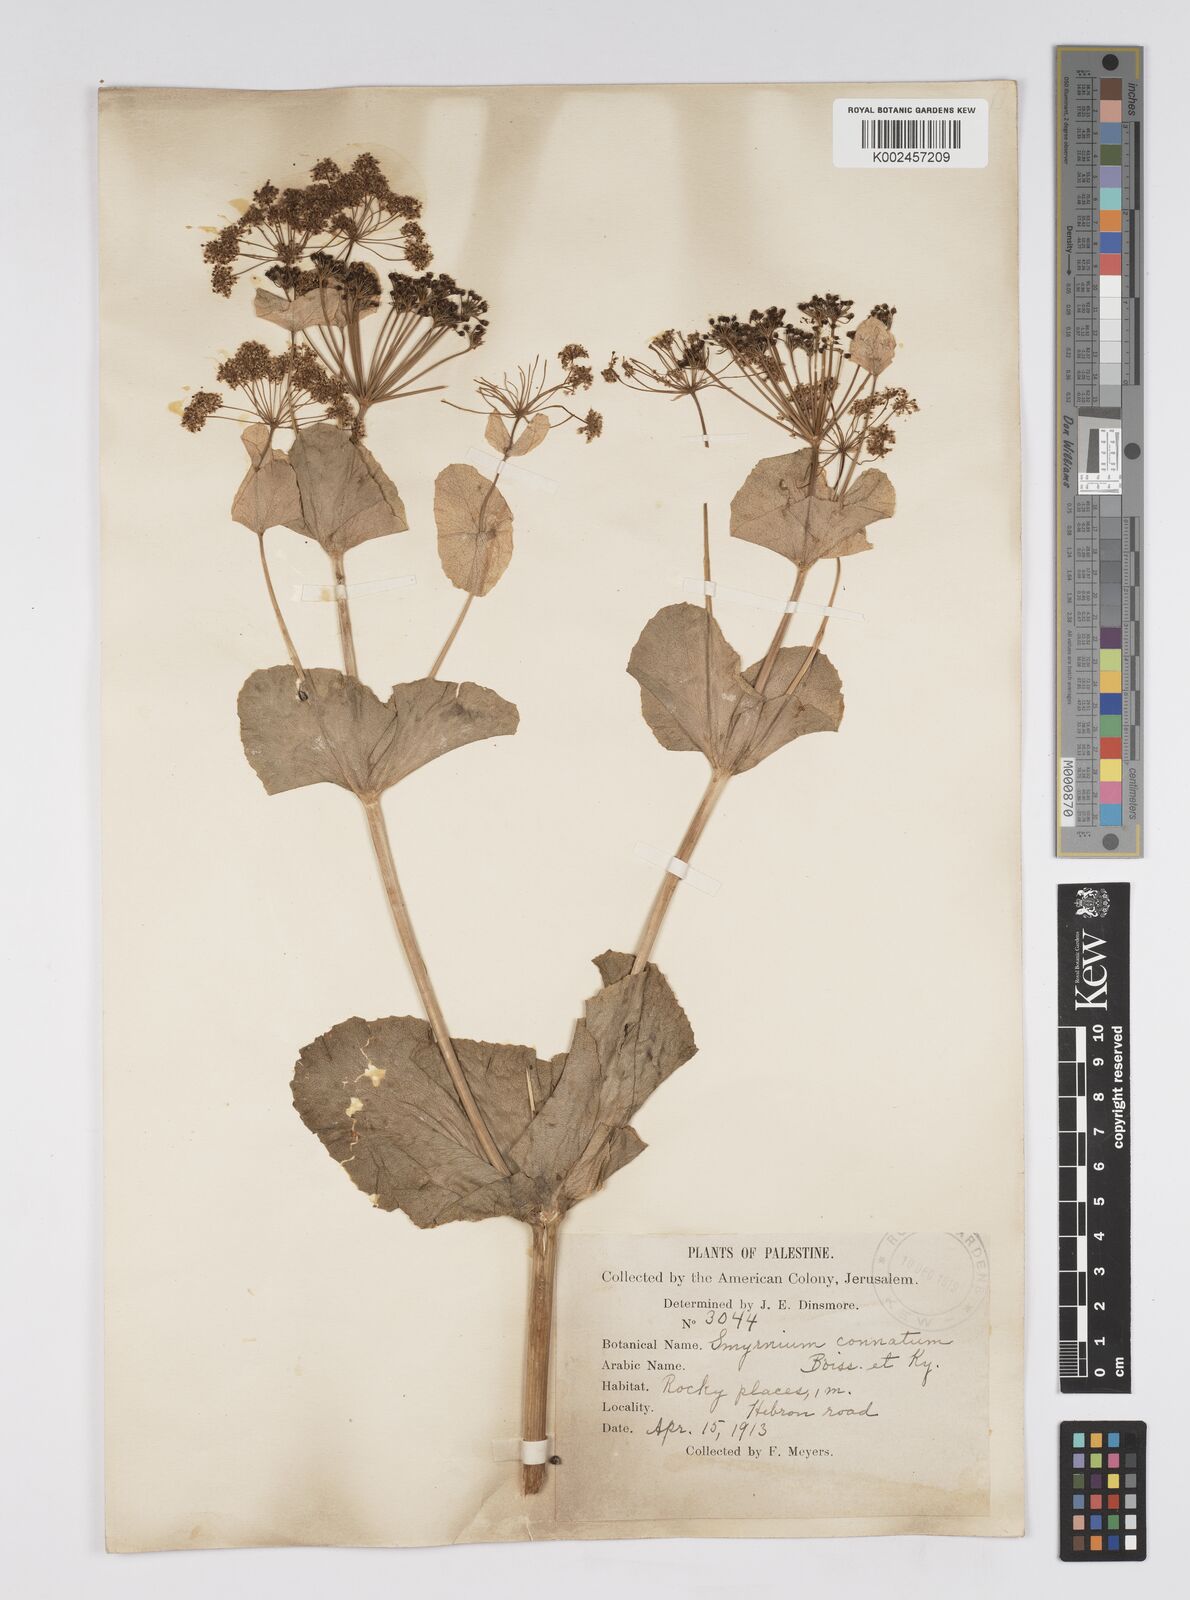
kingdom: Plantae
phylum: Tracheophyta
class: Magnoliopsida
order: Apiales
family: Apiaceae
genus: Smyrnium
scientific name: Smyrnium connatum
